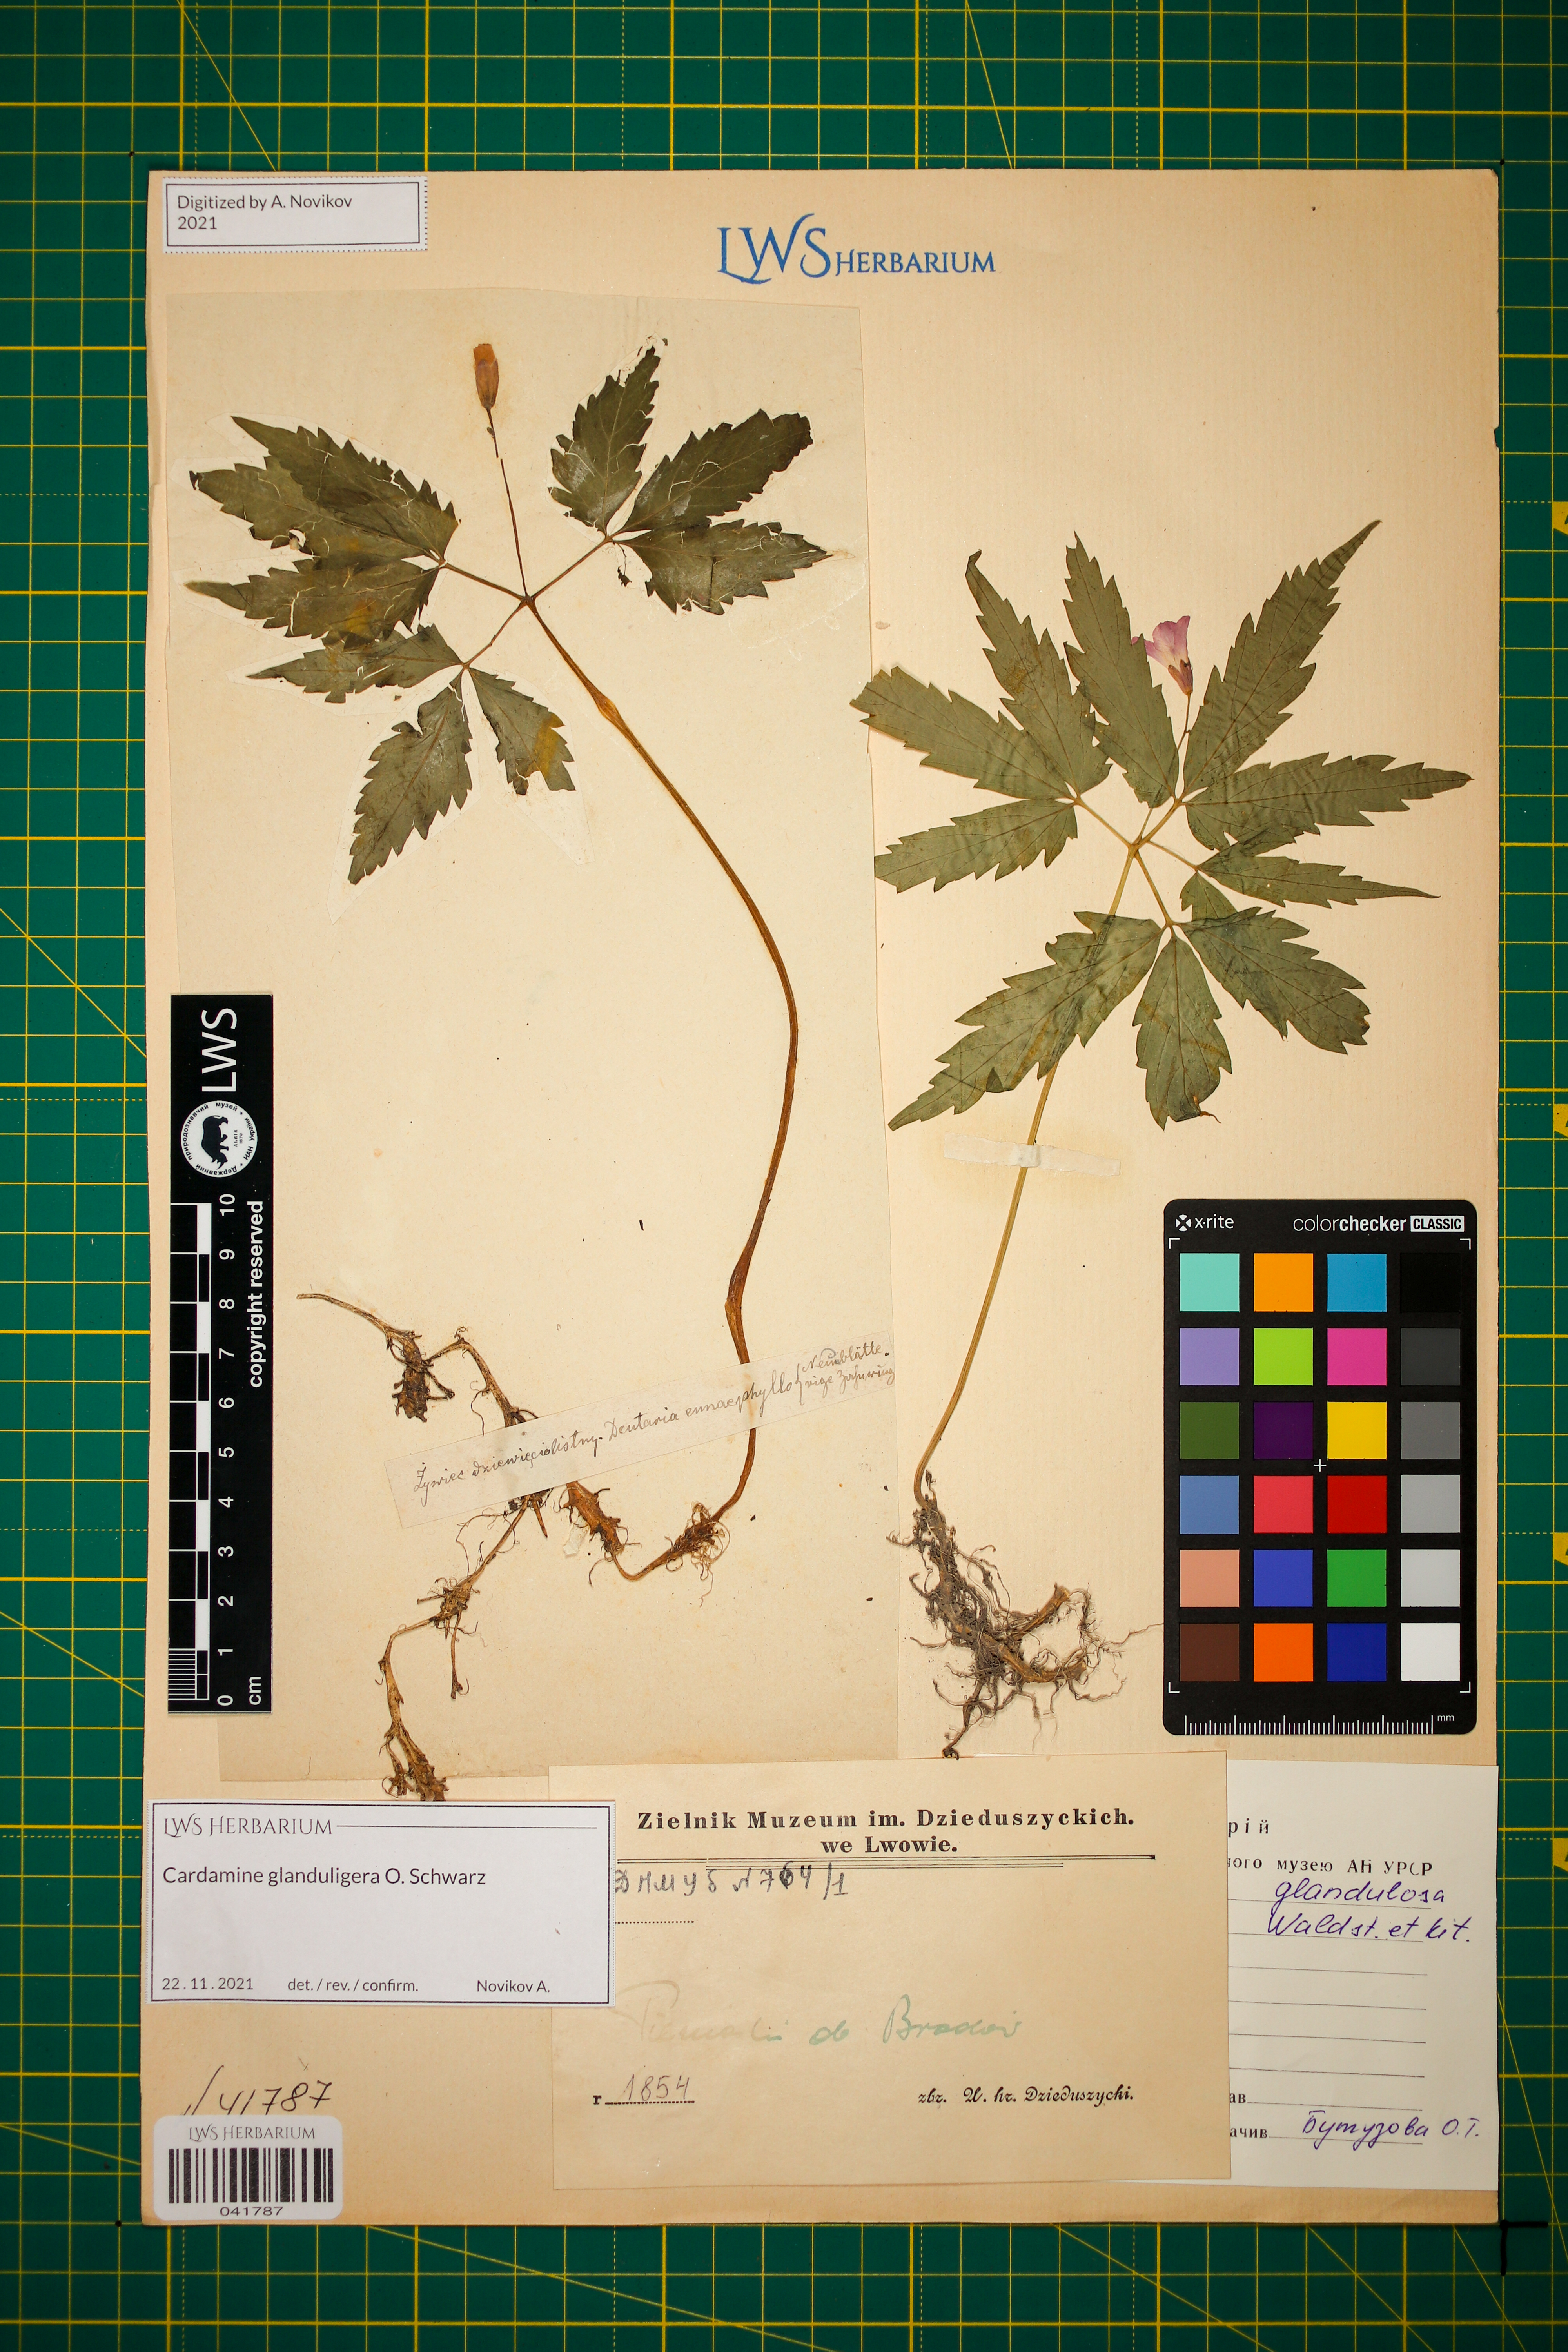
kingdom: Plantae
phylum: Tracheophyta
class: Magnoliopsida
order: Brassicales
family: Brassicaceae
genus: Cardamine
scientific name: Cardamine glanduligera
